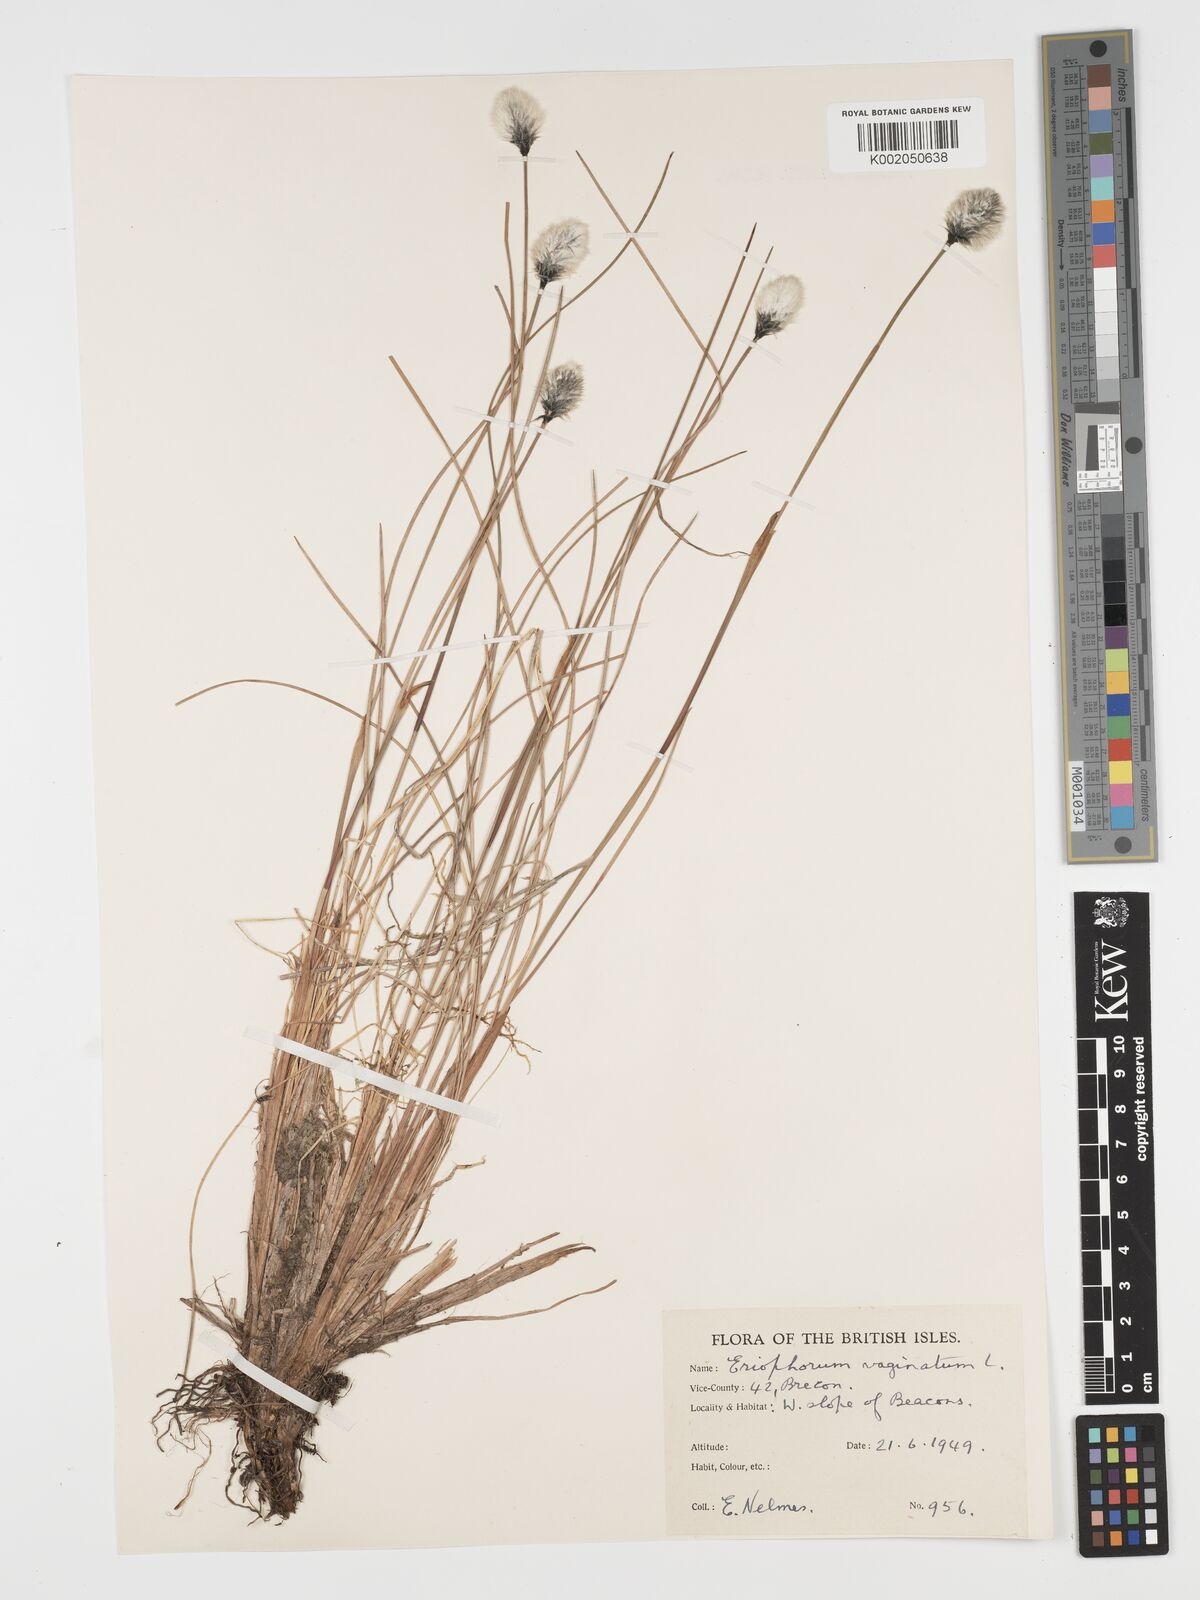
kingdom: Plantae
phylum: Tracheophyta
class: Liliopsida
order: Poales
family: Cyperaceae
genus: Eriophorum
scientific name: Eriophorum vaginatum
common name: Hare's-tail cottongrass
